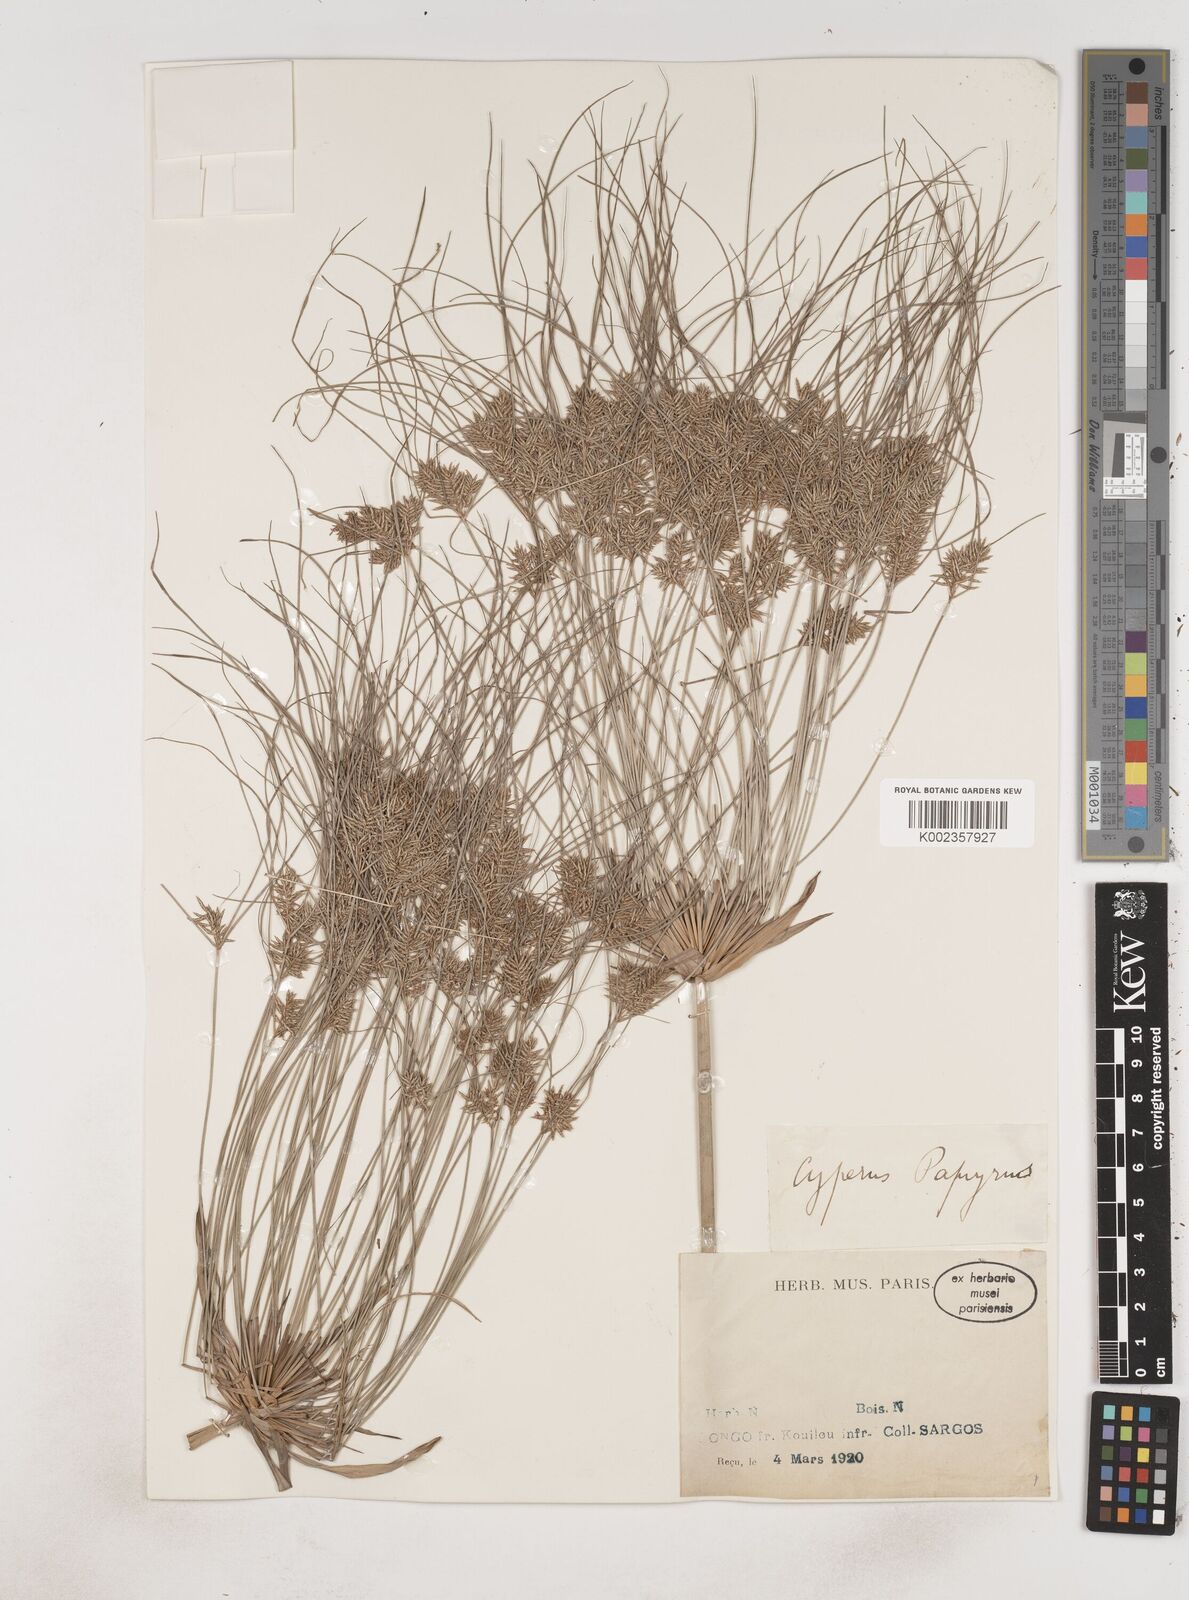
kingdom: Plantae
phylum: Tracheophyta
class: Liliopsida
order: Poales
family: Cyperaceae
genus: Cyperus
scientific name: Cyperus papyrus
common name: Papyrus
